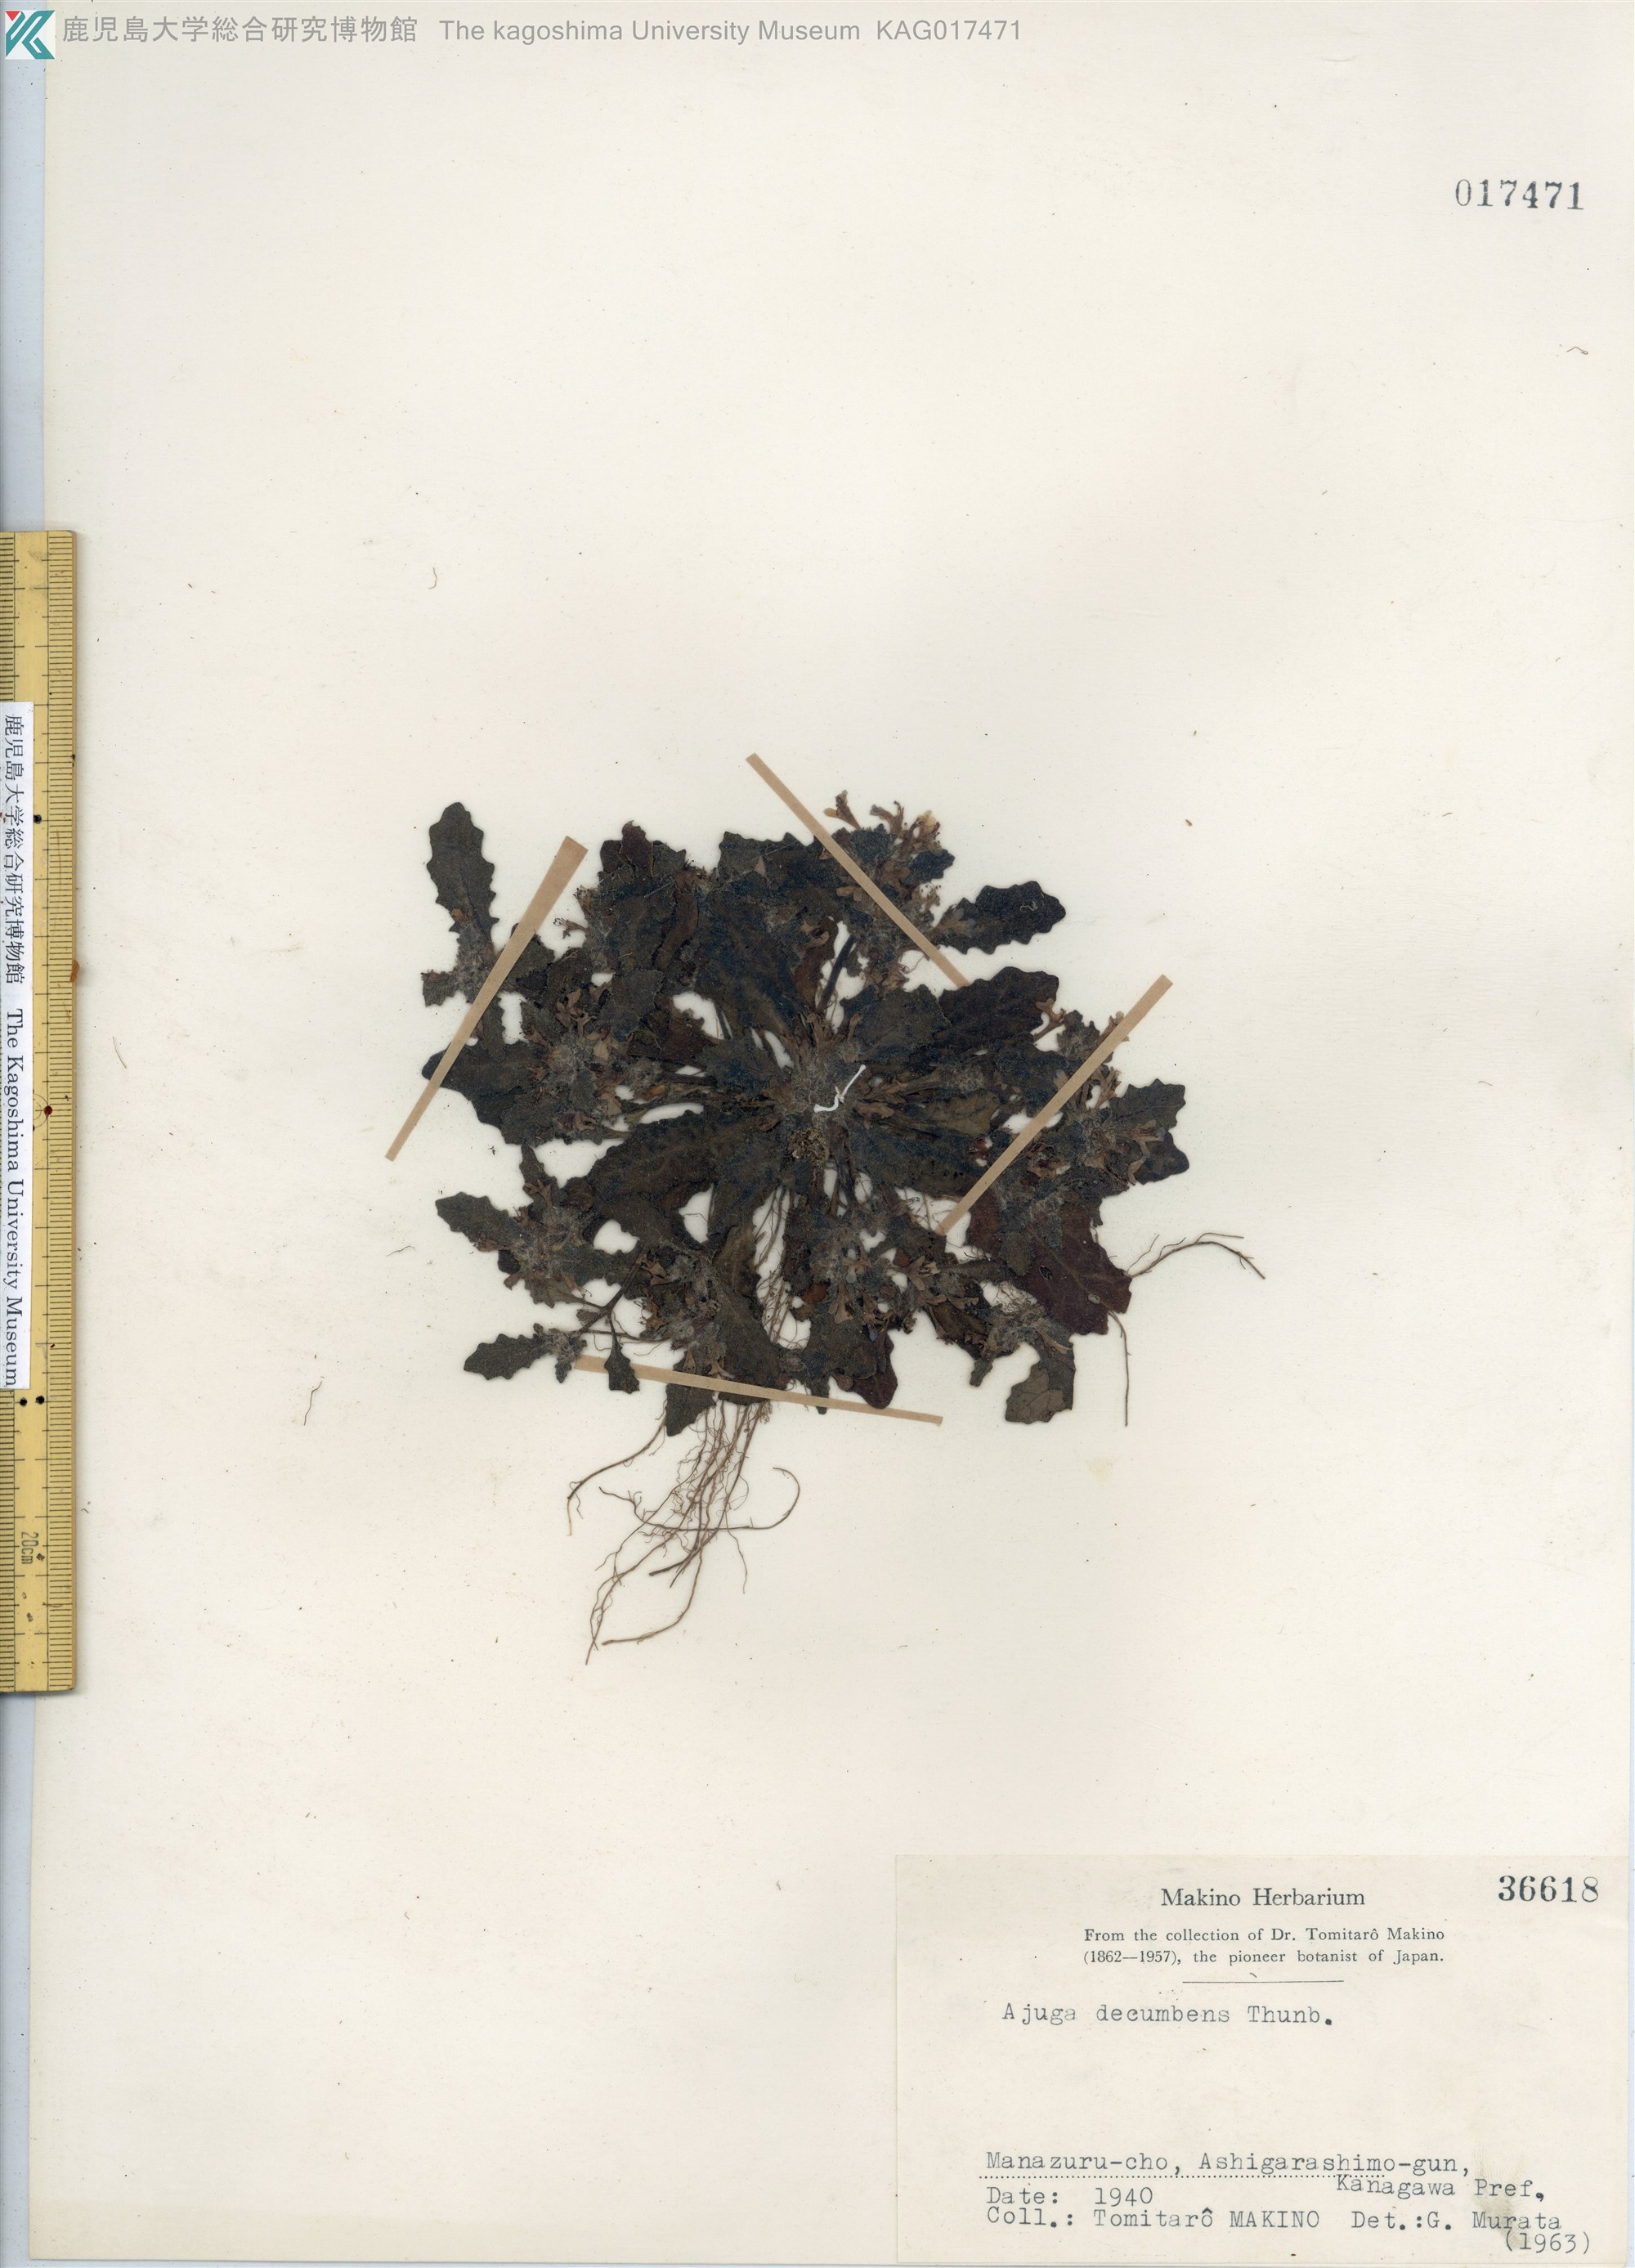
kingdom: Plantae
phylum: Tracheophyta
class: Magnoliopsida
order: Lamiales
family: Lamiaceae
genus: Ajuga
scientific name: Ajuga decumbens
